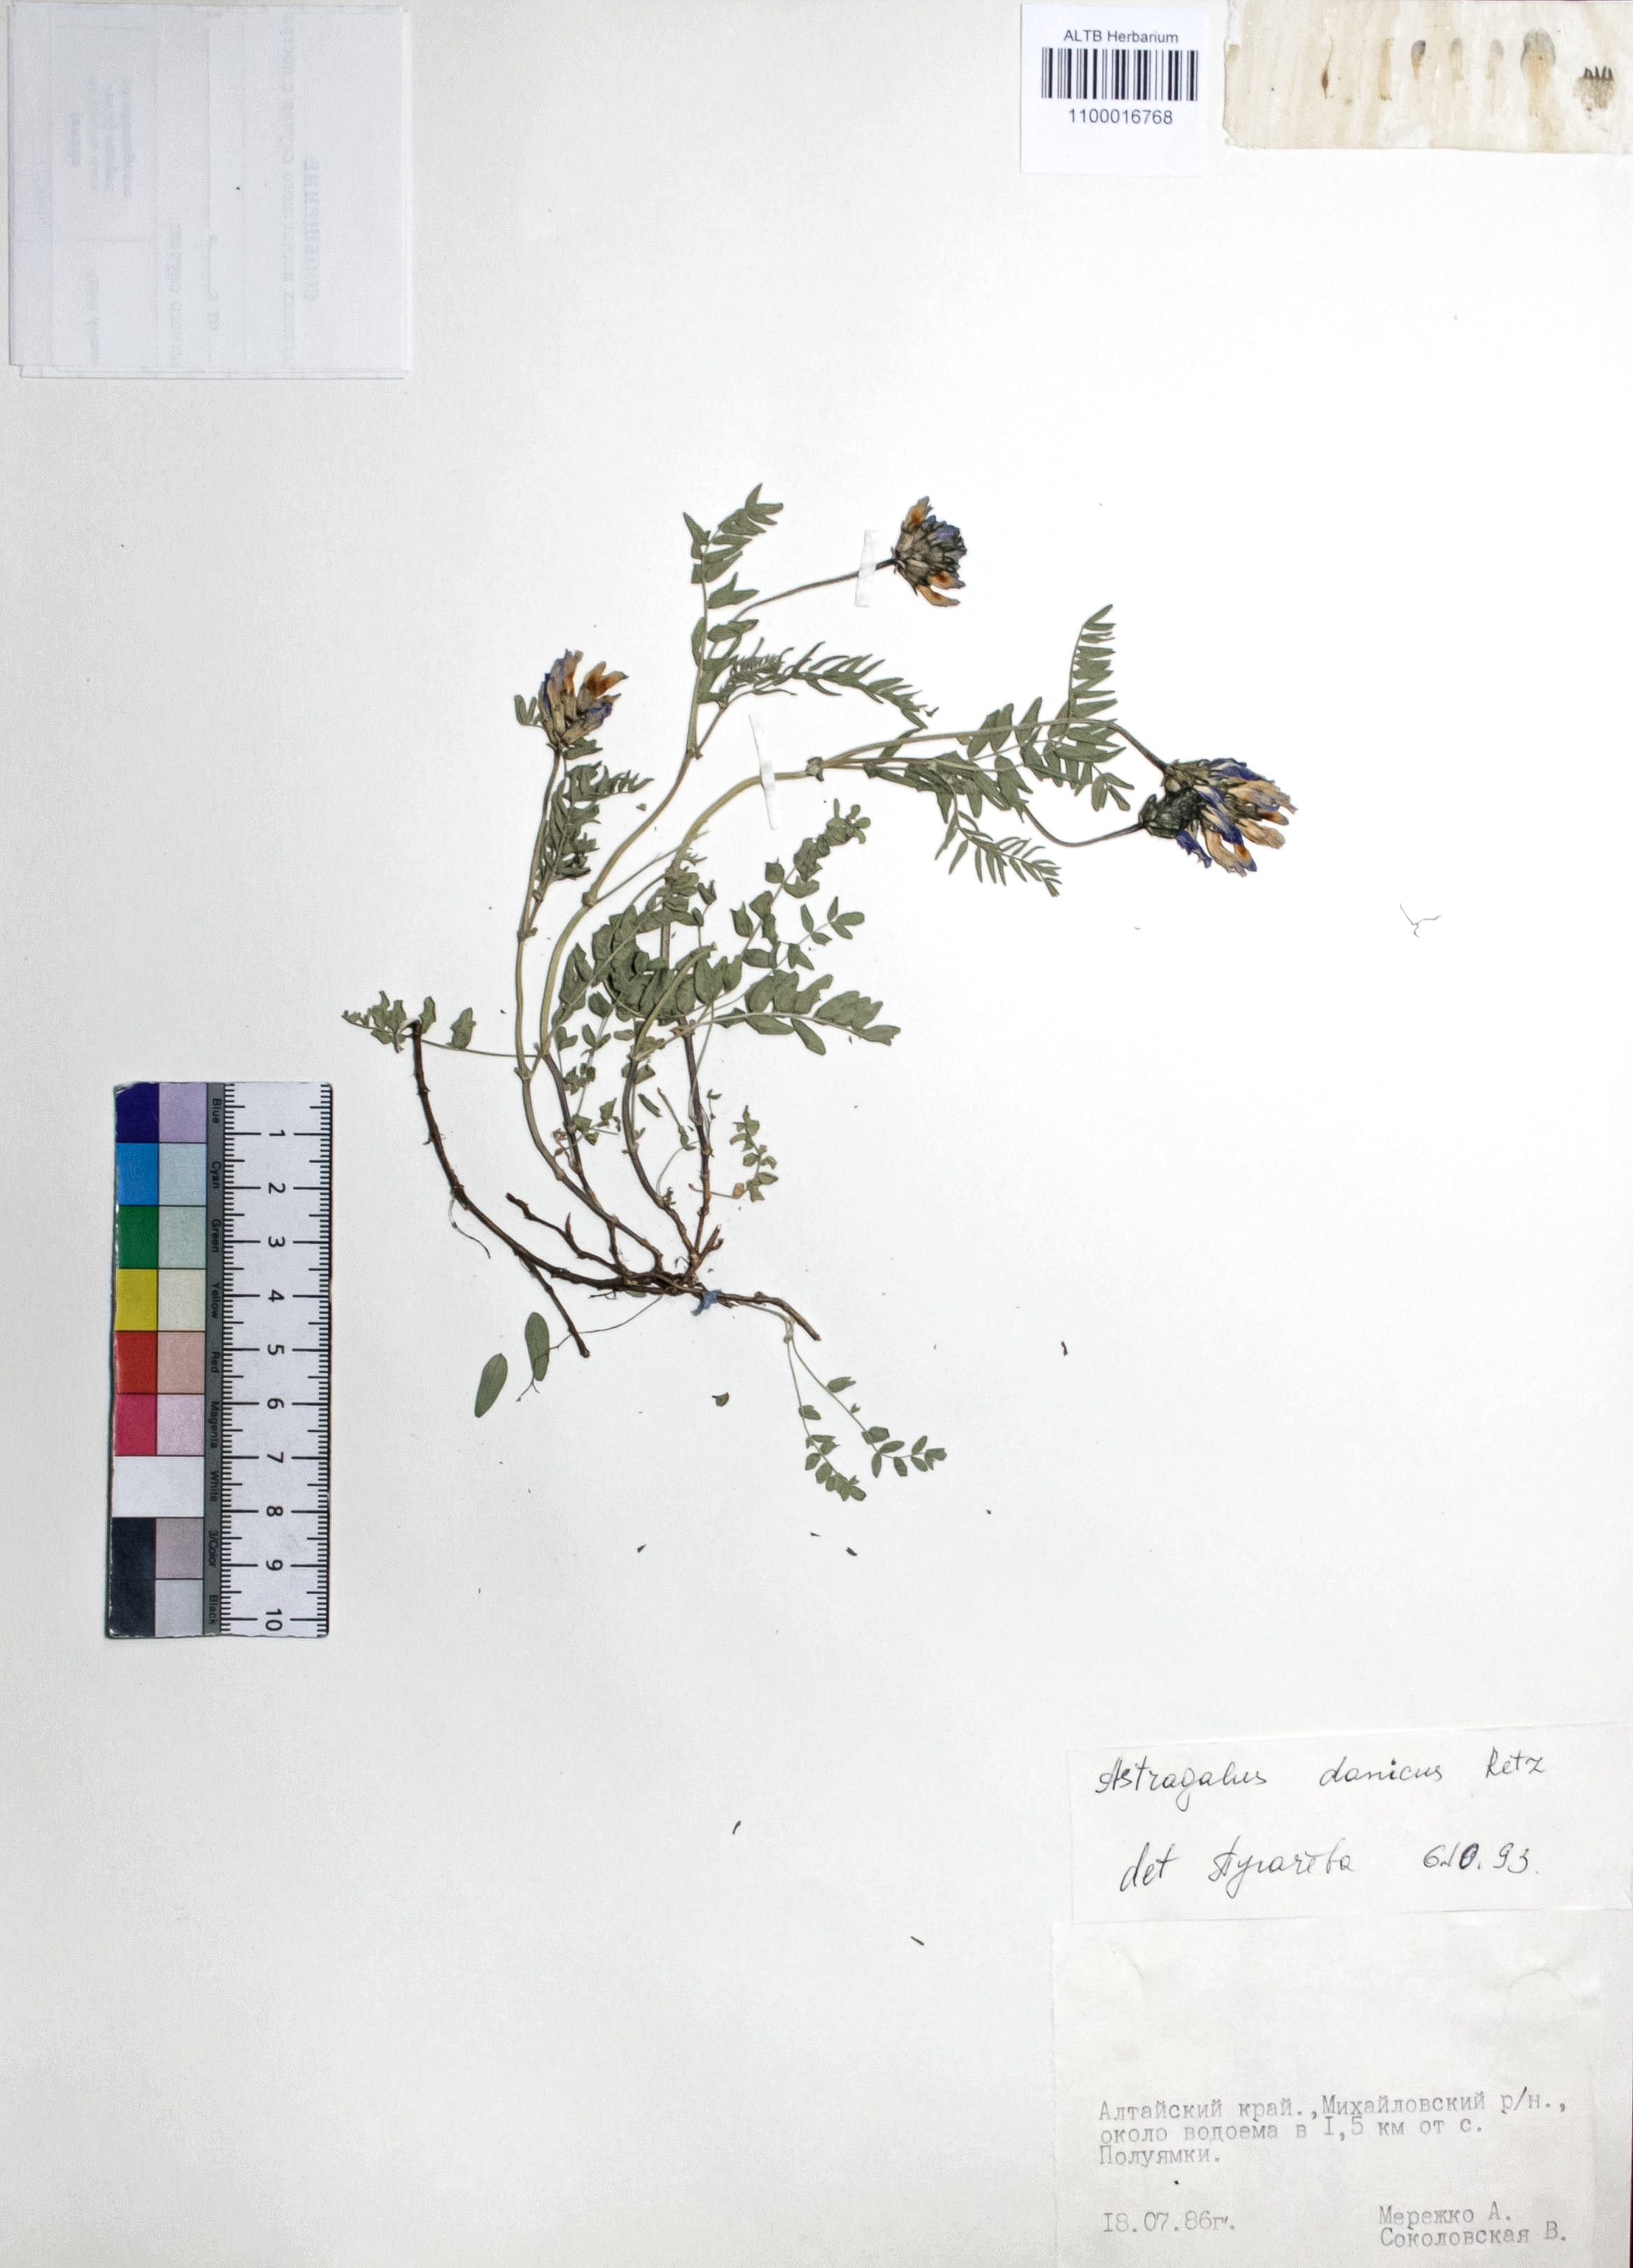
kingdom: Plantae
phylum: Tracheophyta
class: Magnoliopsida
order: Fabales
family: Fabaceae
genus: Astragalus
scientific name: Astragalus danicus
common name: Purple milk-vetch
